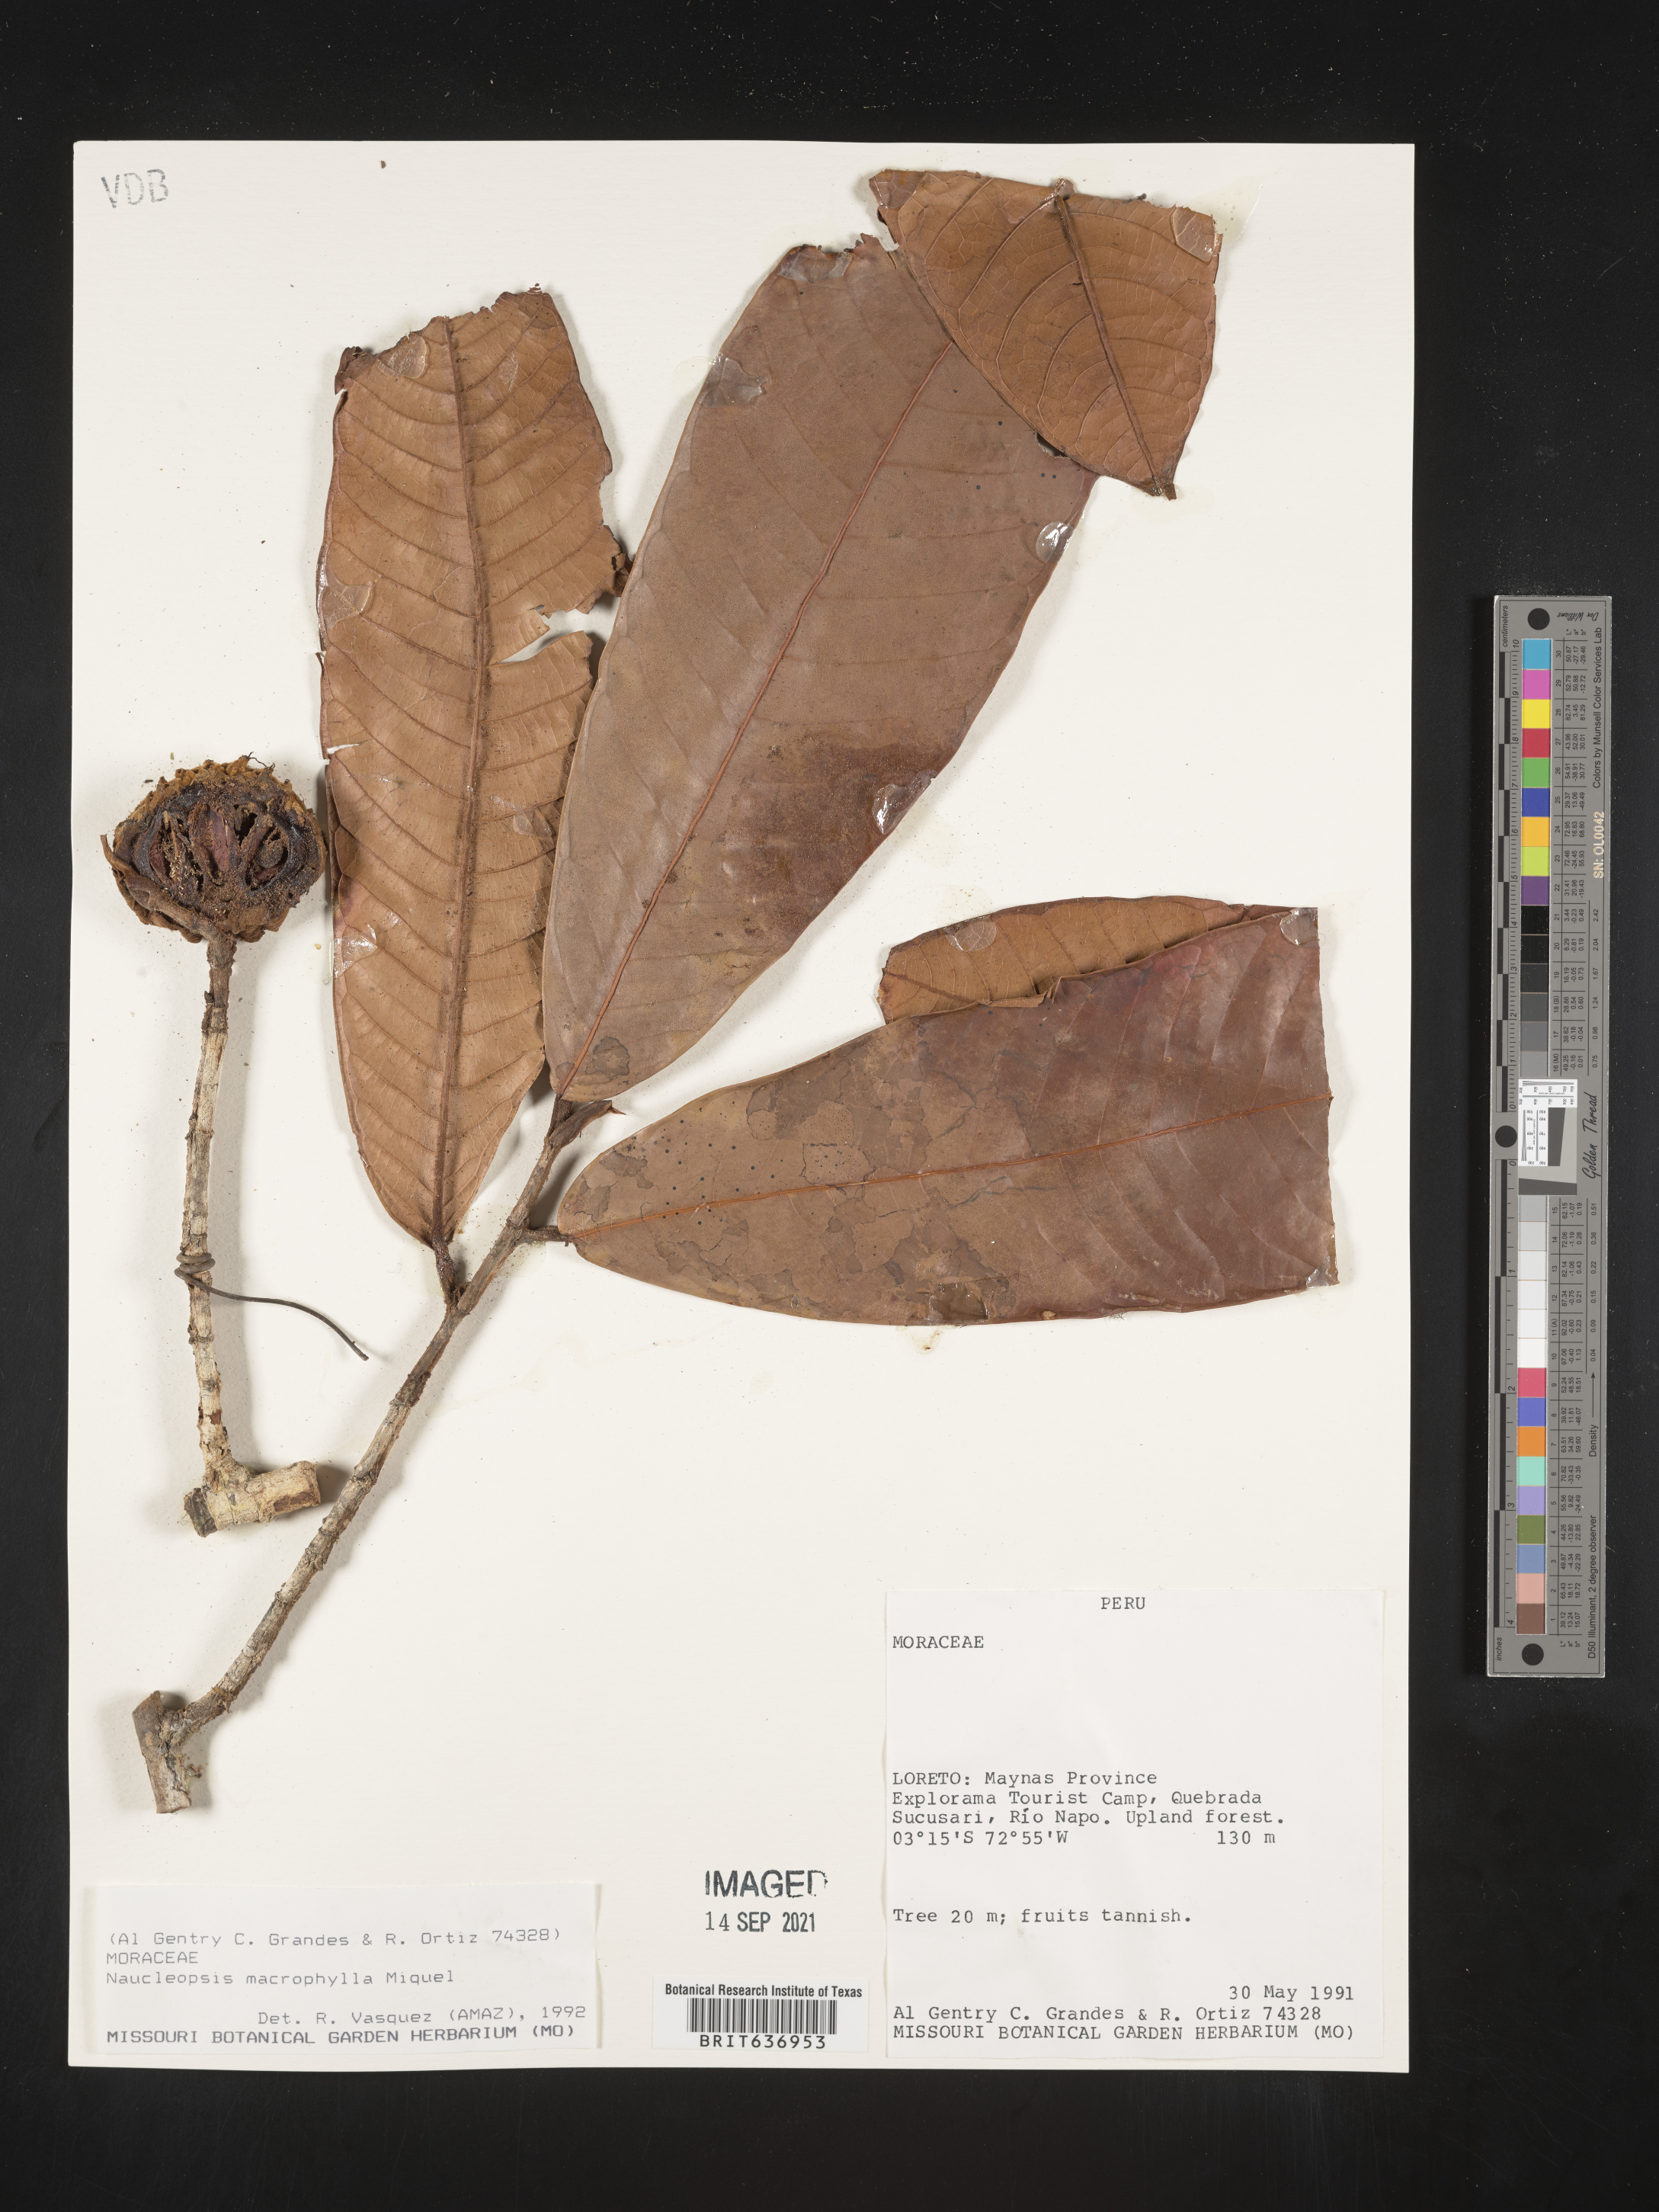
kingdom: Plantae
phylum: Tracheophyta
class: Magnoliopsida
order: Rosales
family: Moraceae
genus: Naucleopsis
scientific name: Naucleopsis
